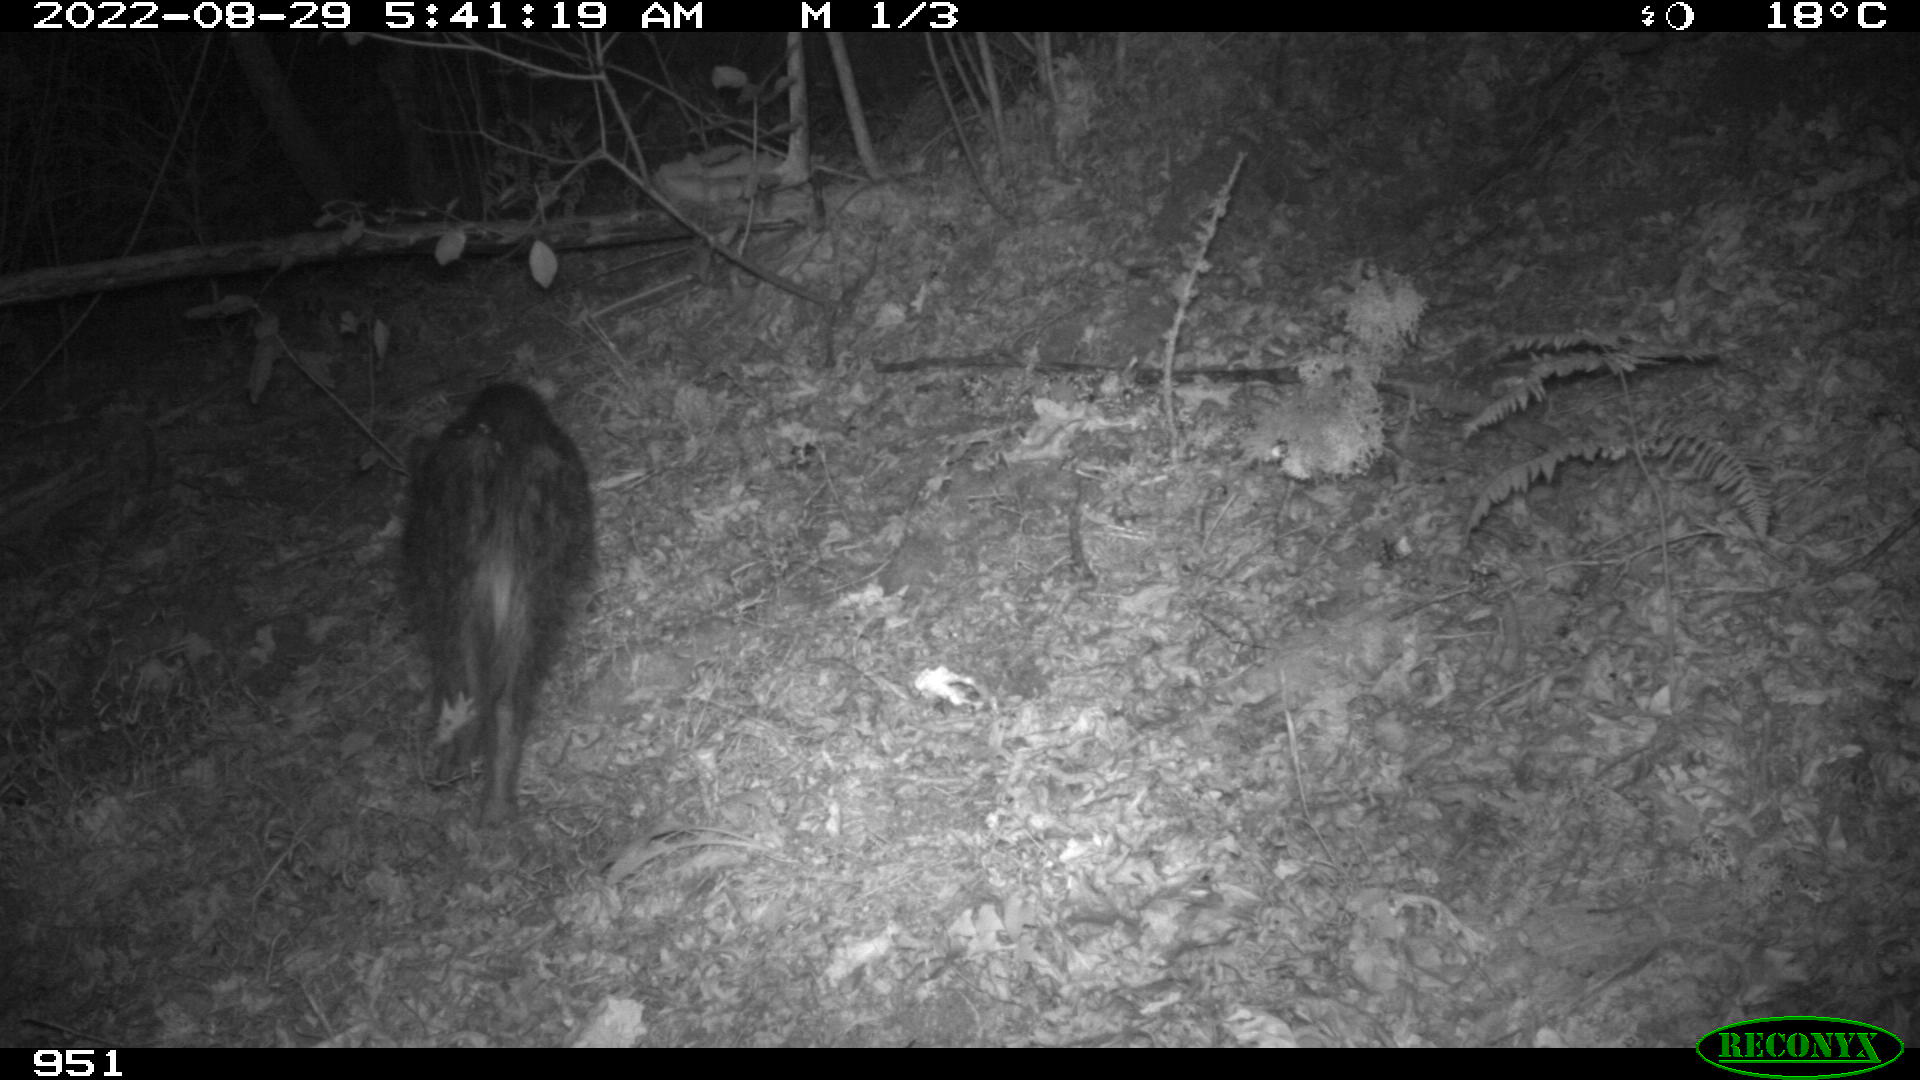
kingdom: Animalia
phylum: Chordata
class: Mammalia
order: Artiodactyla
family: Suidae
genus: Sus
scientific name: Sus scrofa
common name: Wild boar
